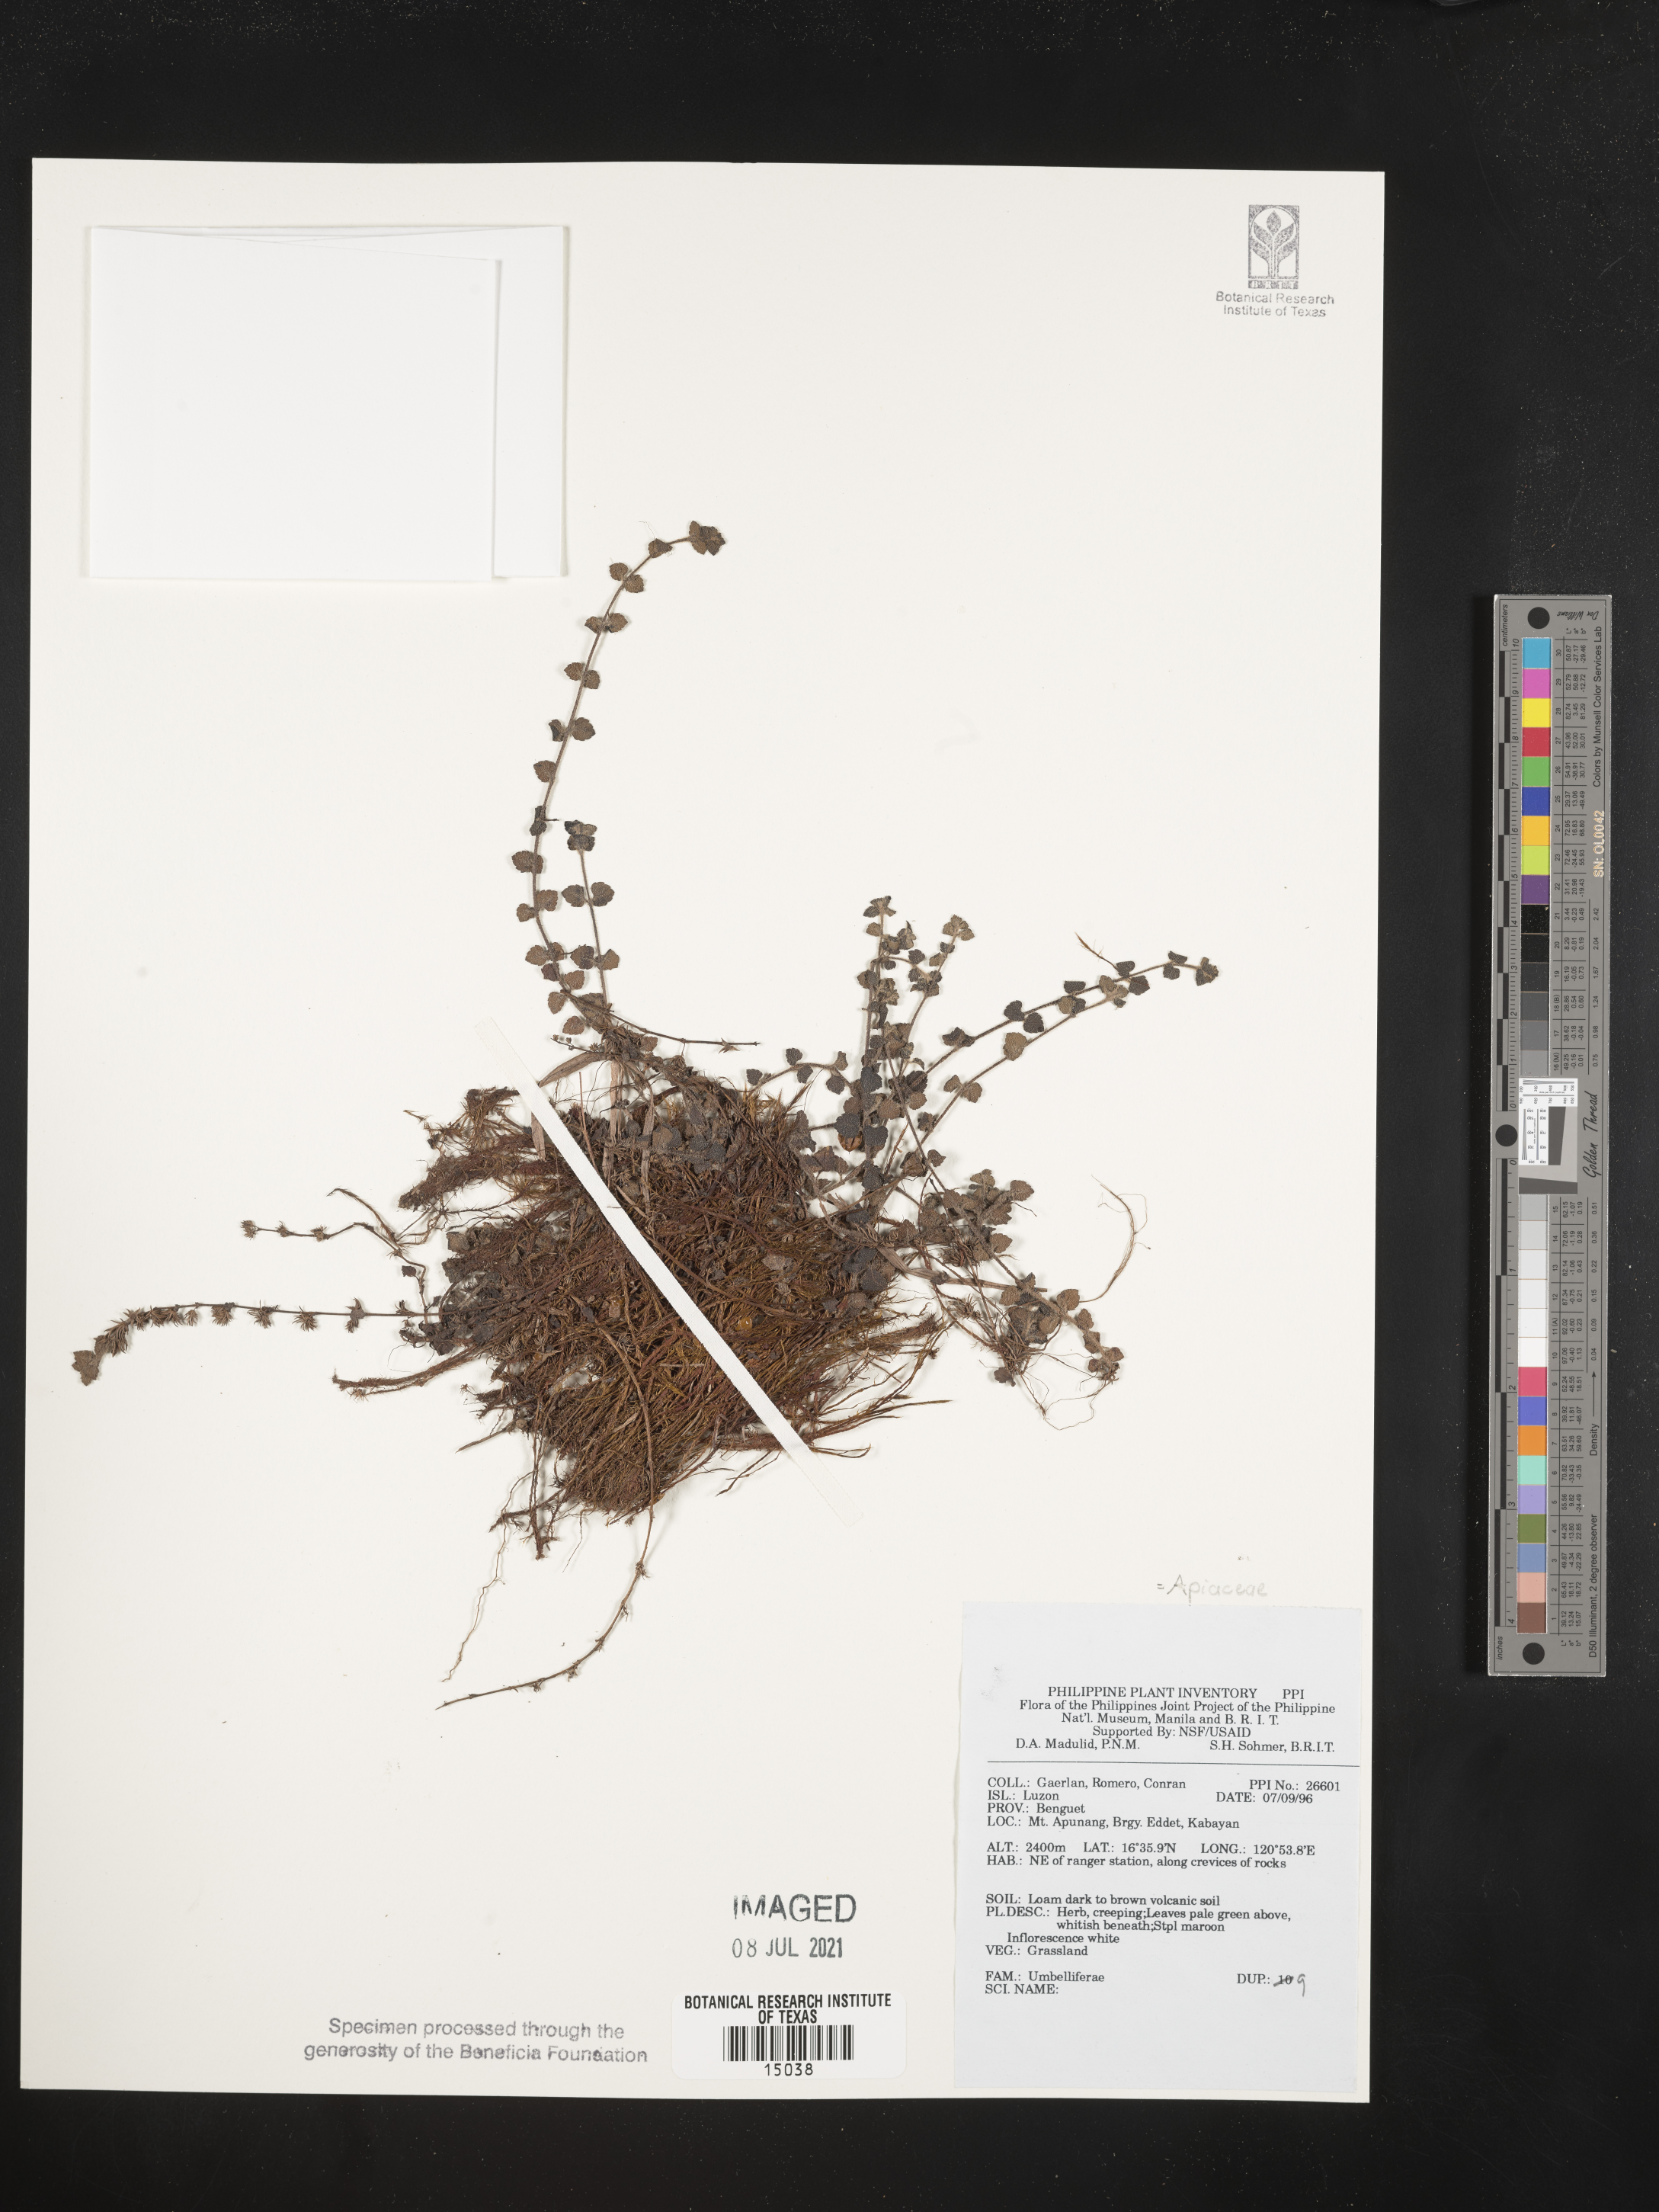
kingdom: Plantae
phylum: Tracheophyta
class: Magnoliopsida
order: Apiales
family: Apiaceae
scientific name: Apiaceae
